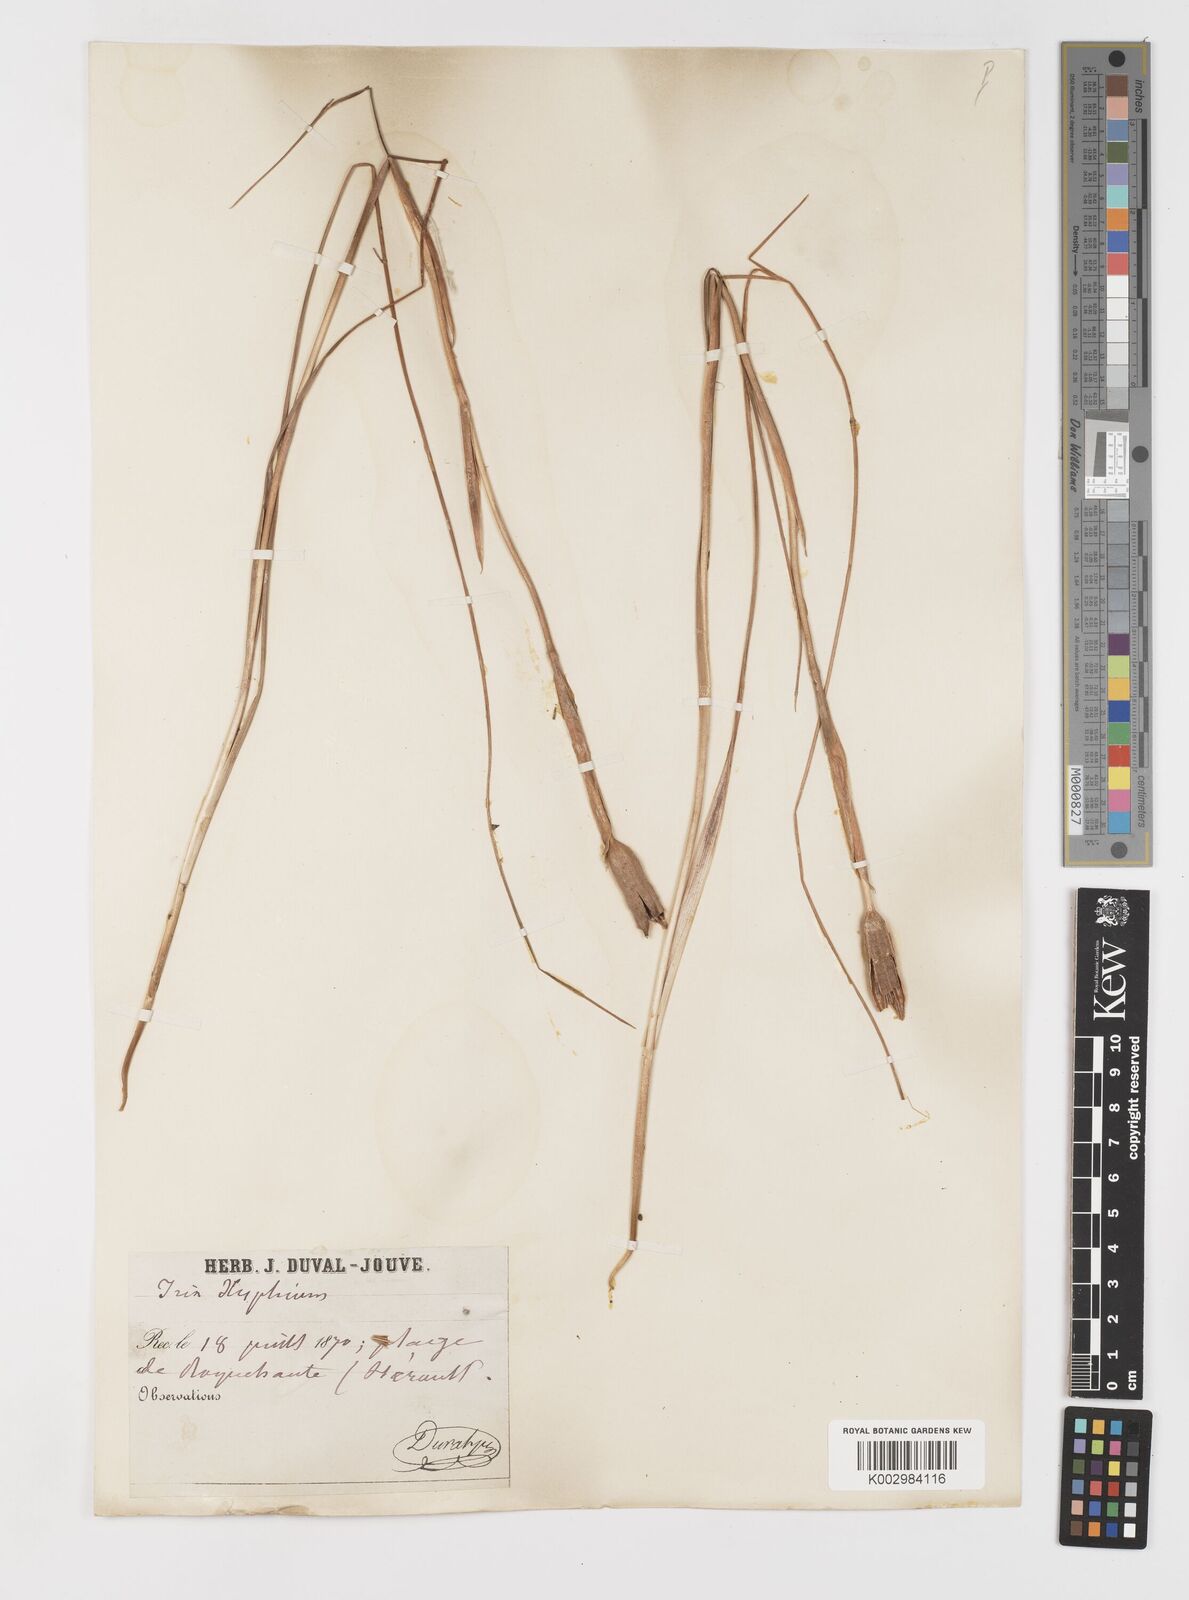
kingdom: Plantae
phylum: Tracheophyta
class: Liliopsida
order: Asparagales
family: Iridaceae
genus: Iris
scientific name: Iris xiphium
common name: Spanish iris
